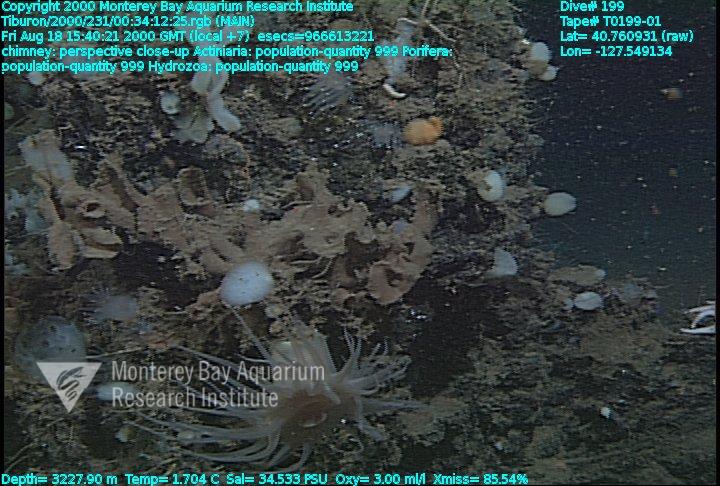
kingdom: Animalia
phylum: Porifera
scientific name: Porifera
